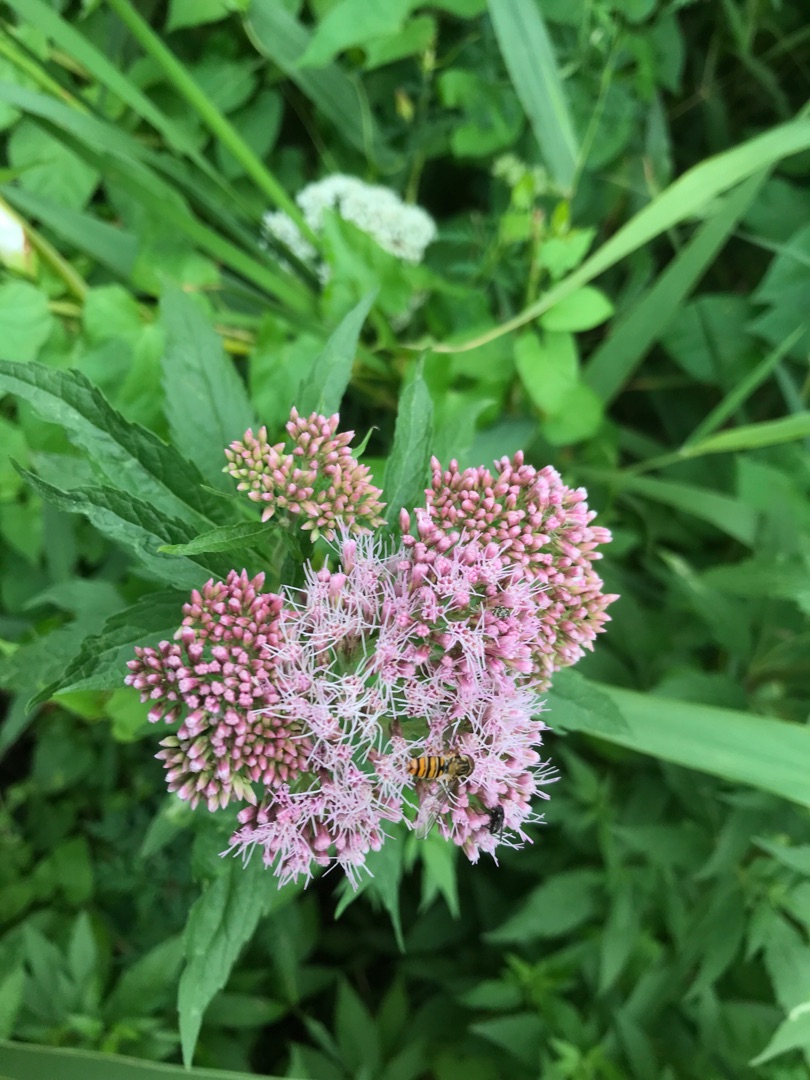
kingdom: Animalia
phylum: Arthropoda
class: Insecta
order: Diptera
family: Syrphidae
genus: Episyrphus
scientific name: Episyrphus balteatus
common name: Dobbeltbåndet svirreflue
